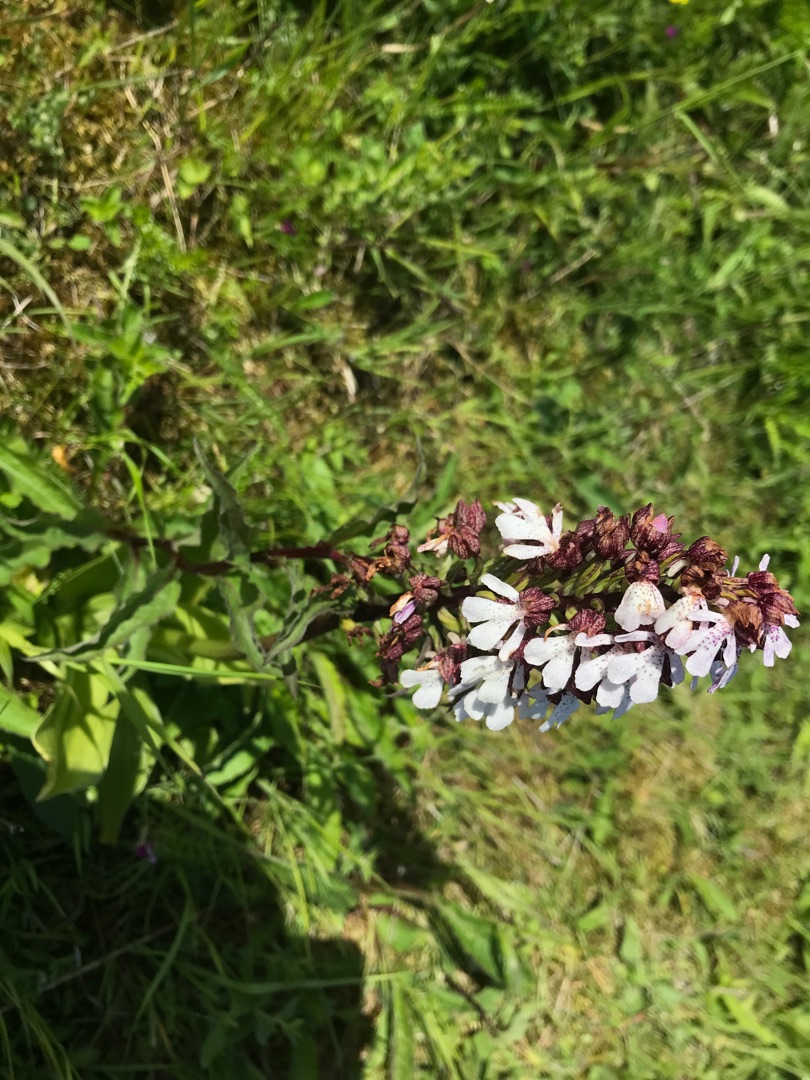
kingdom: Plantae
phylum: Tracheophyta
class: Liliopsida
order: Asparagales
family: Orchidaceae
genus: Orchis
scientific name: Orchis purpurea
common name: Stor gøgeurt
